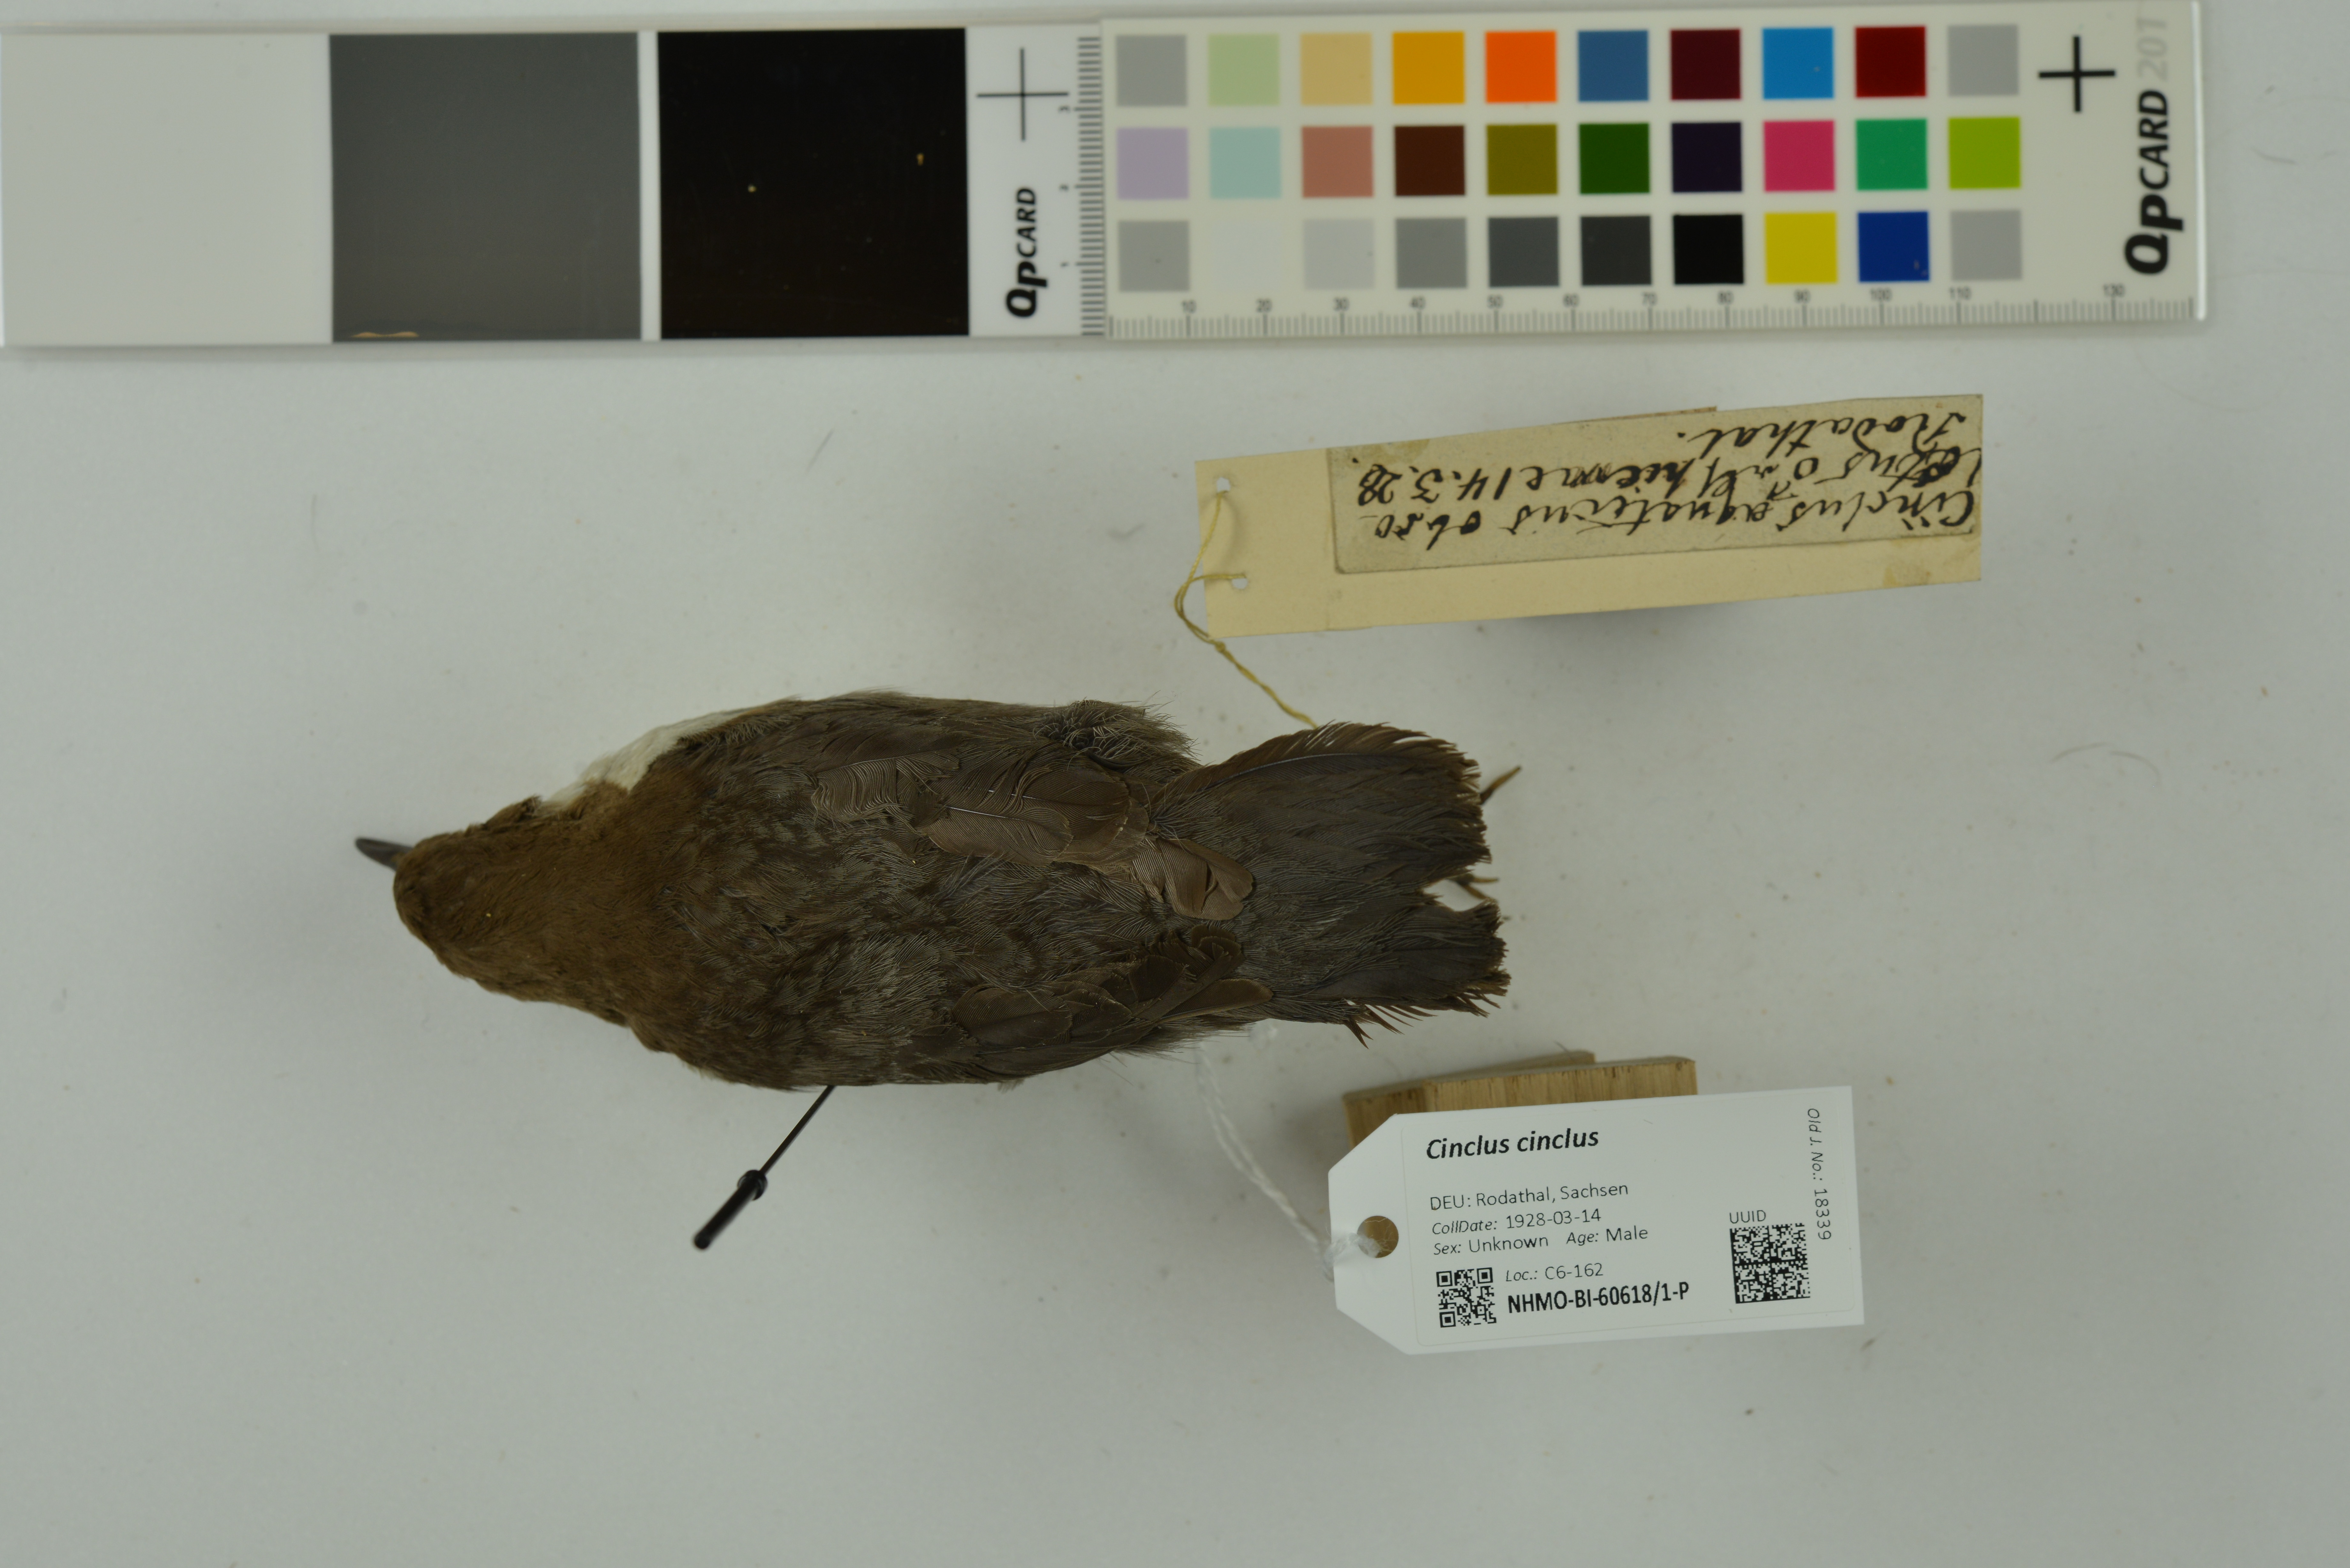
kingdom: Animalia
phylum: Chordata
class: Aves
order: Passeriformes
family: Cinclidae
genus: Cinclus
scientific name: Cinclus cinclus
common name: White-throated dipper
